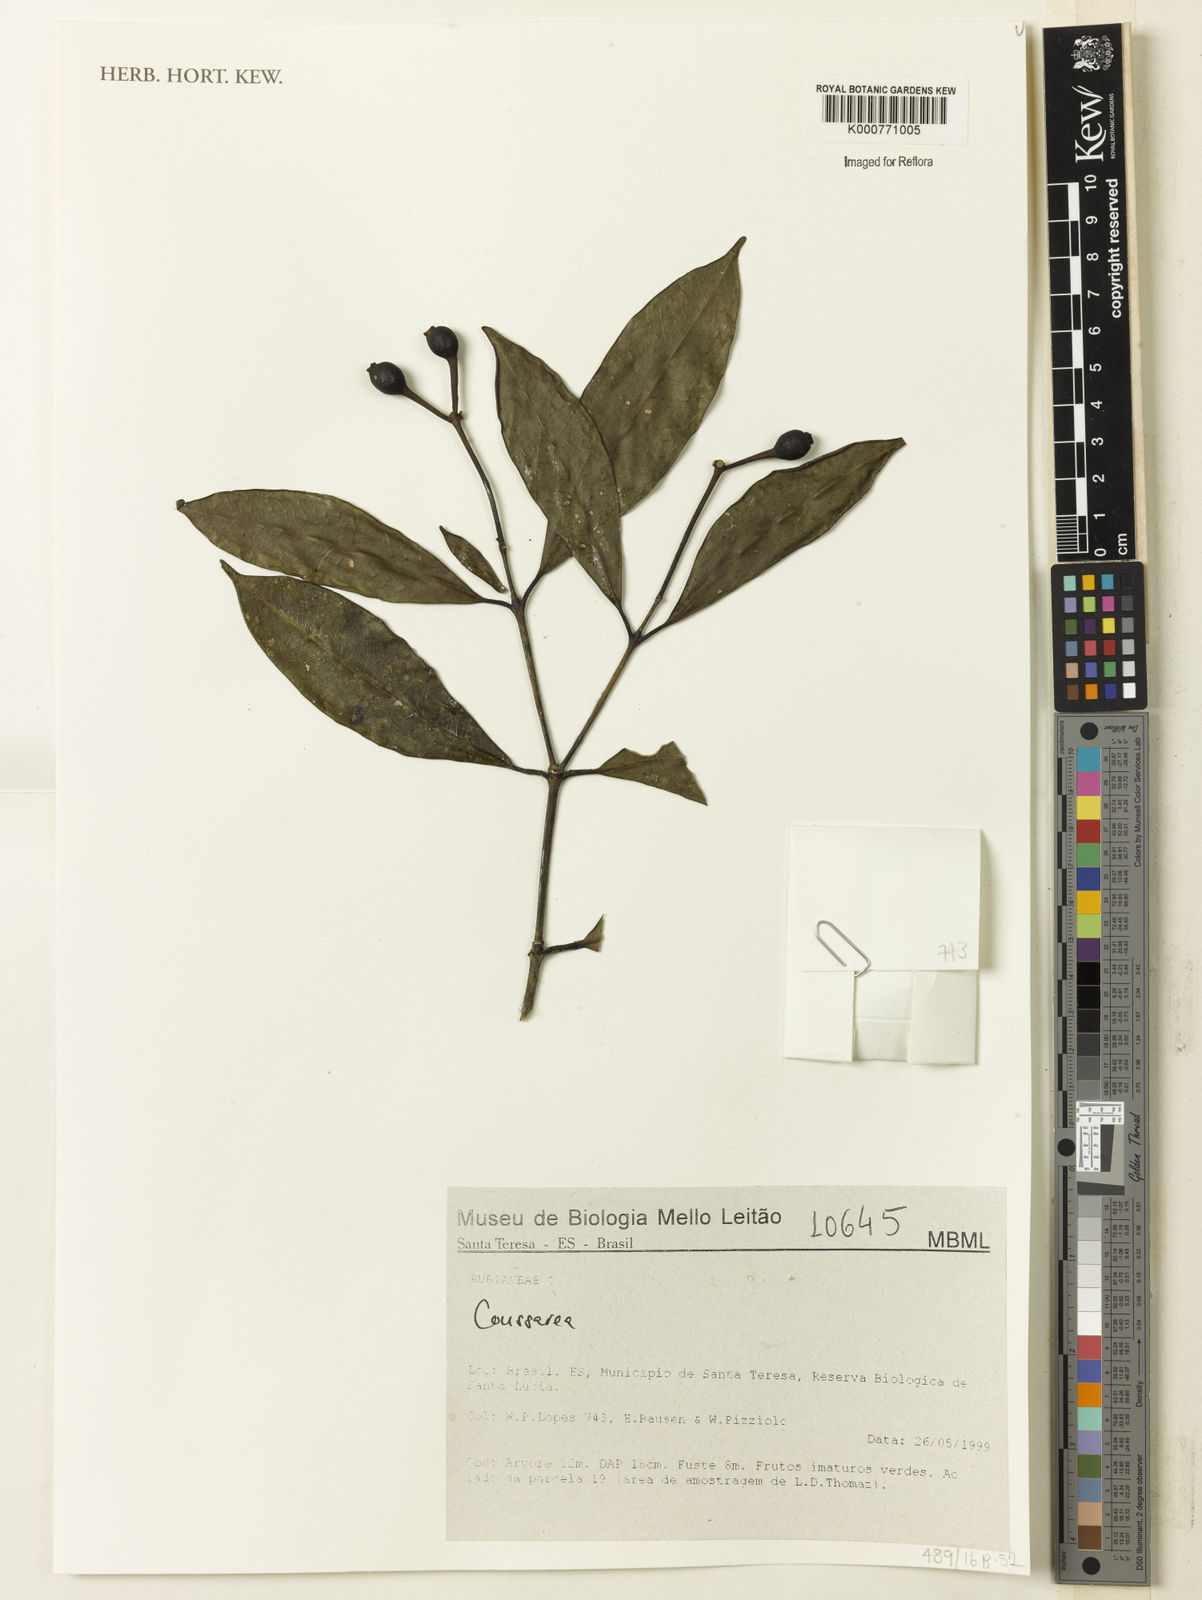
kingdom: Plantae
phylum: Tracheophyta
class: Magnoliopsida
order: Gentianales
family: Rubiaceae
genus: Coussarea
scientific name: Coussarea
